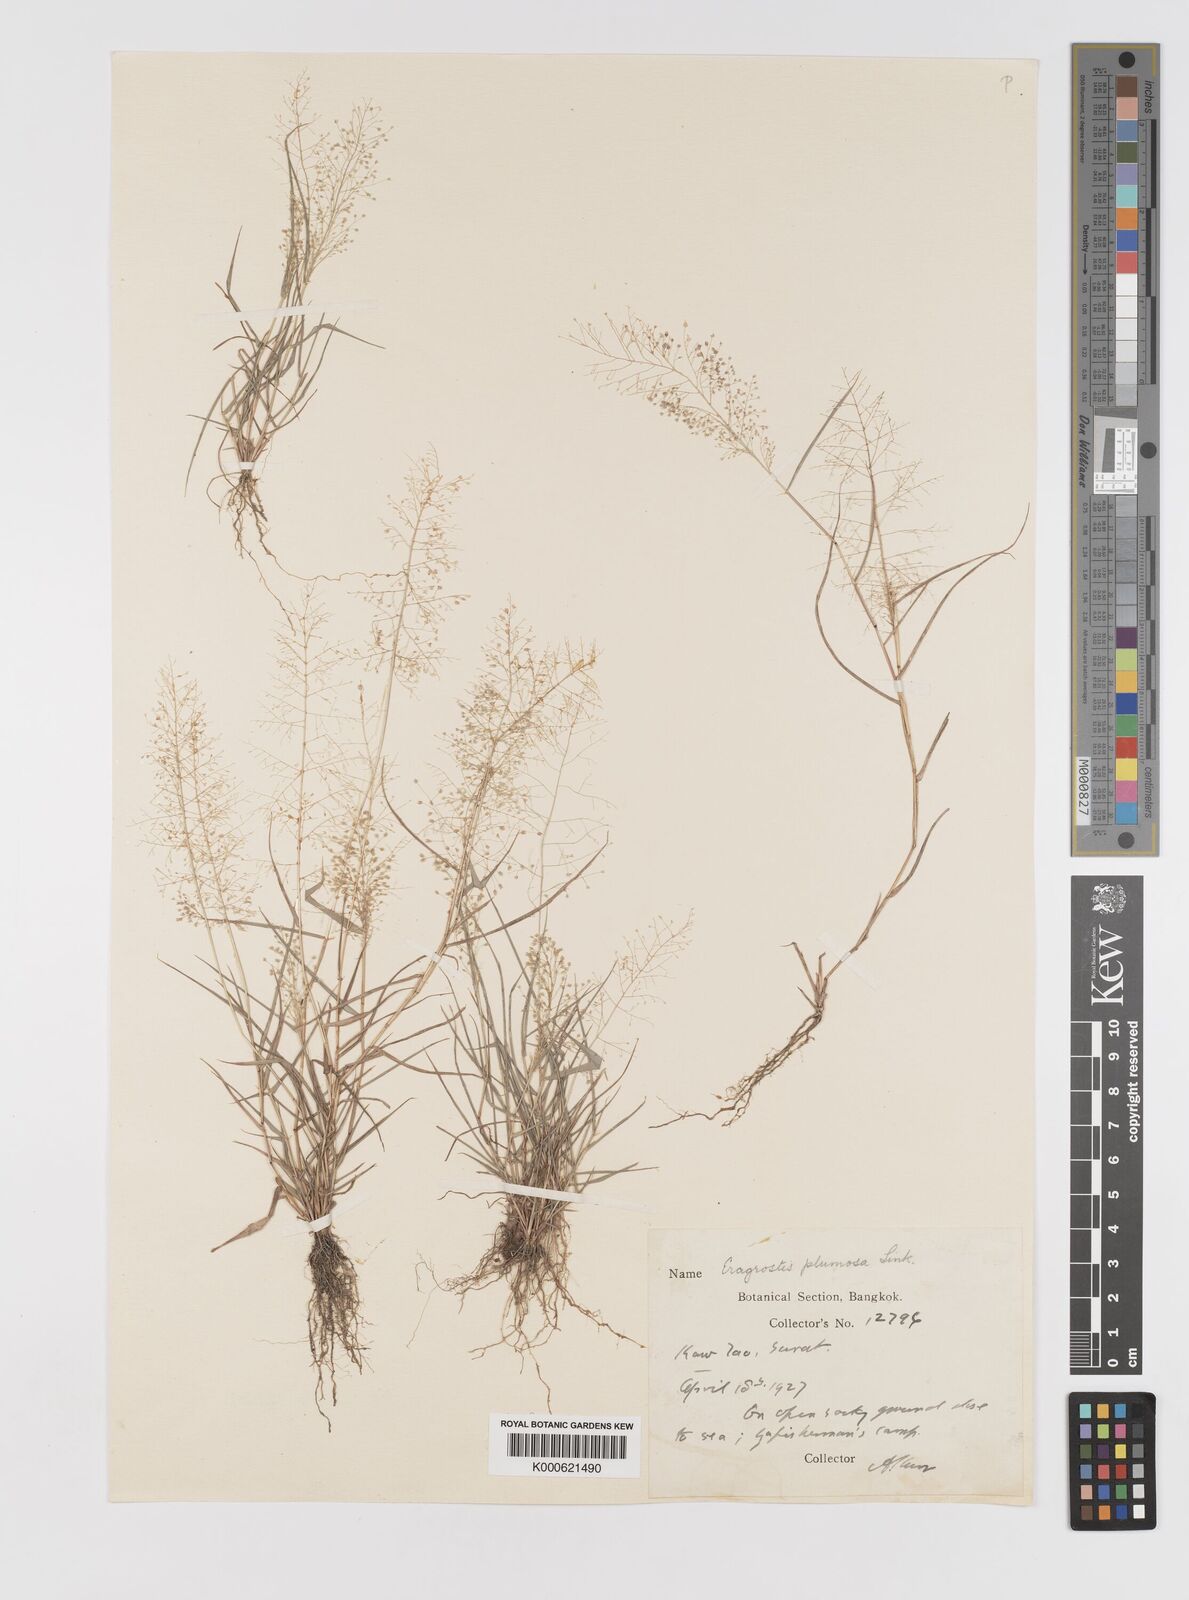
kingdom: Plantae
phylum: Tracheophyta
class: Liliopsida
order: Poales
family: Poaceae
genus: Eragrostis
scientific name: Eragrostis tenella
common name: Japanese lovegrass
